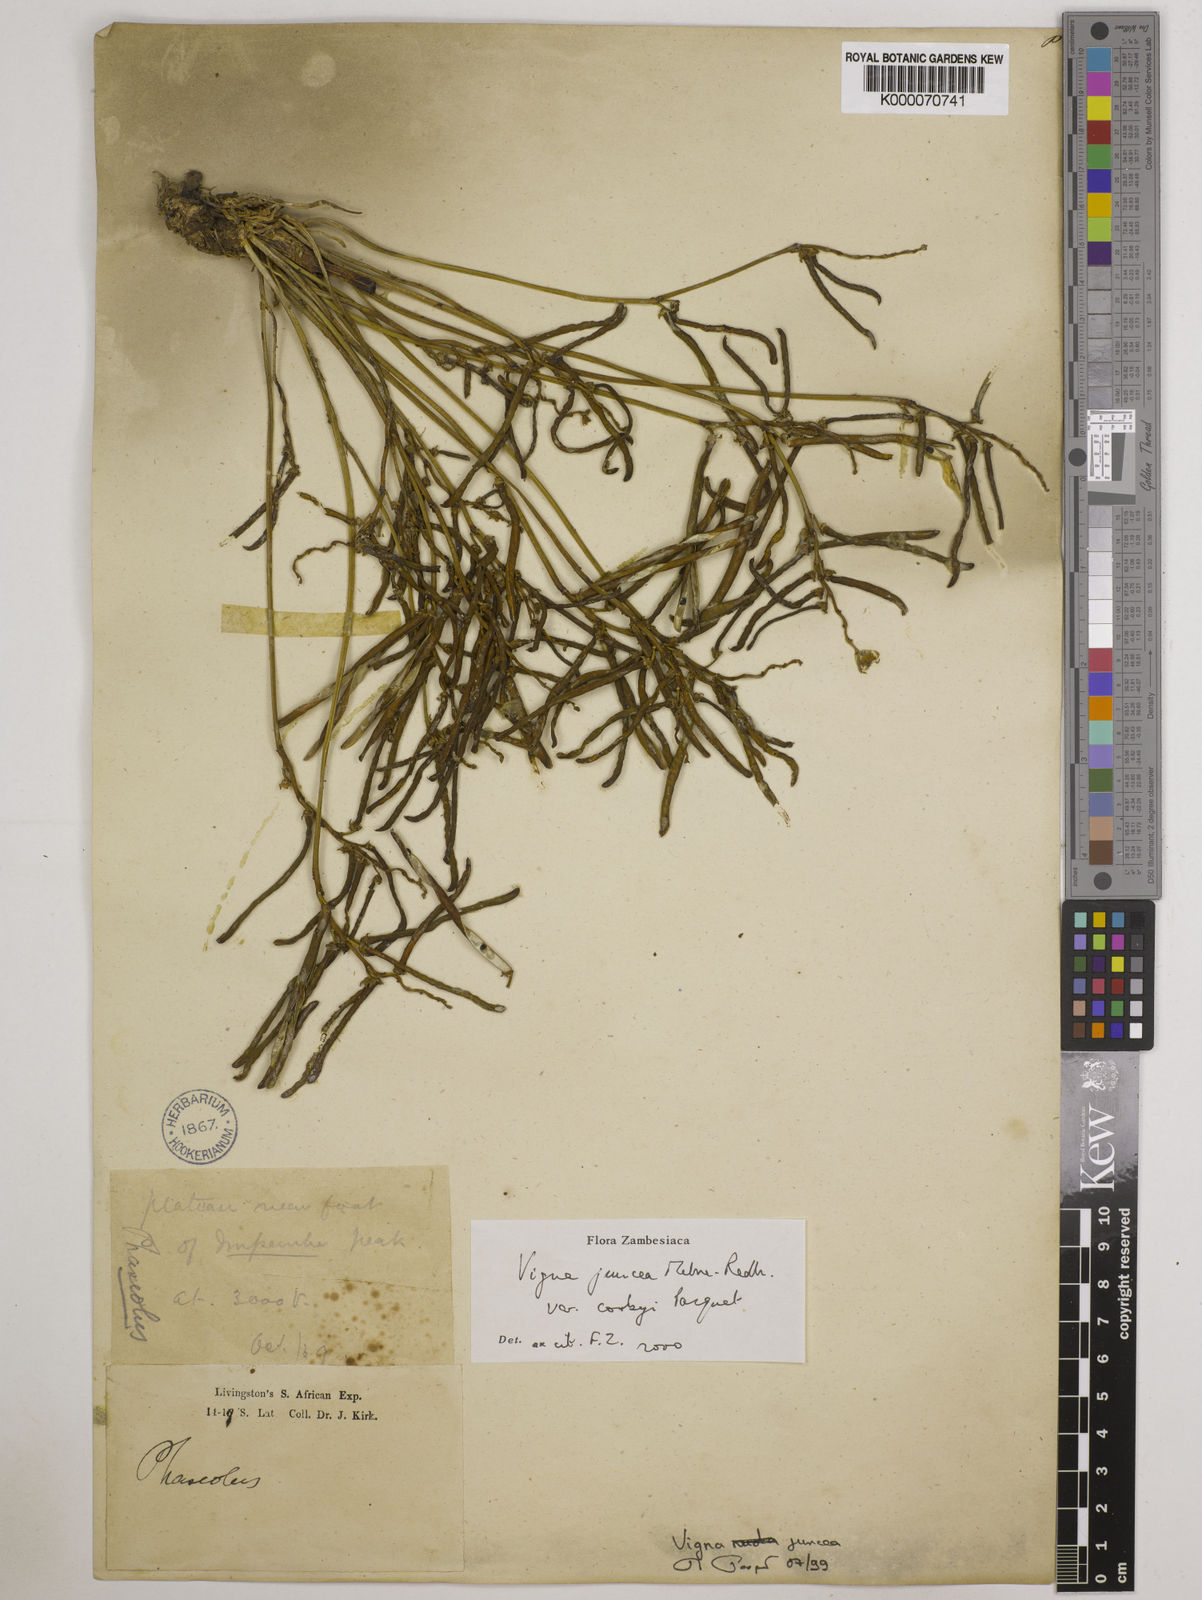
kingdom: Plantae
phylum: Tracheophyta
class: Magnoliopsida
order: Fabales
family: Fabaceae
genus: Vigna
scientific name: Vigna juncea
